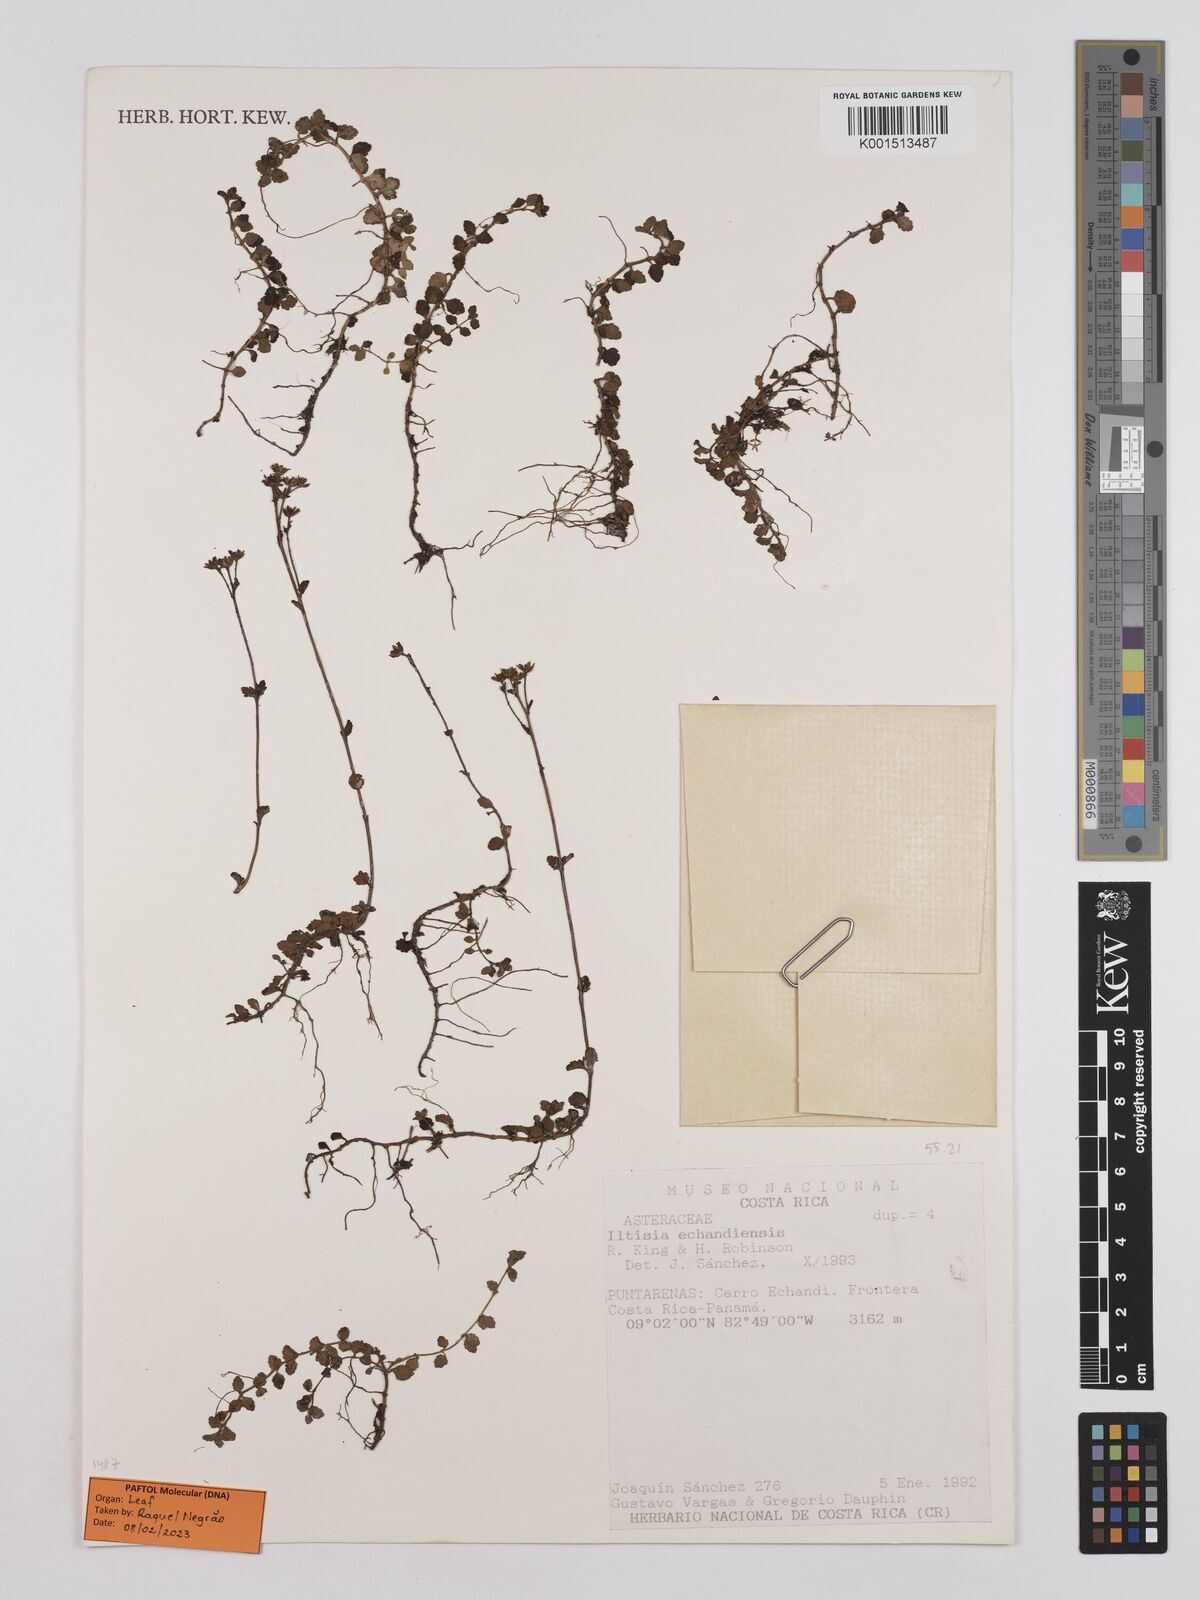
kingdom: Plantae
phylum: Tracheophyta
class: Magnoliopsida
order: Asterales
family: Asteraceae
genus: Iltisia
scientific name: Iltisia echandiensis
